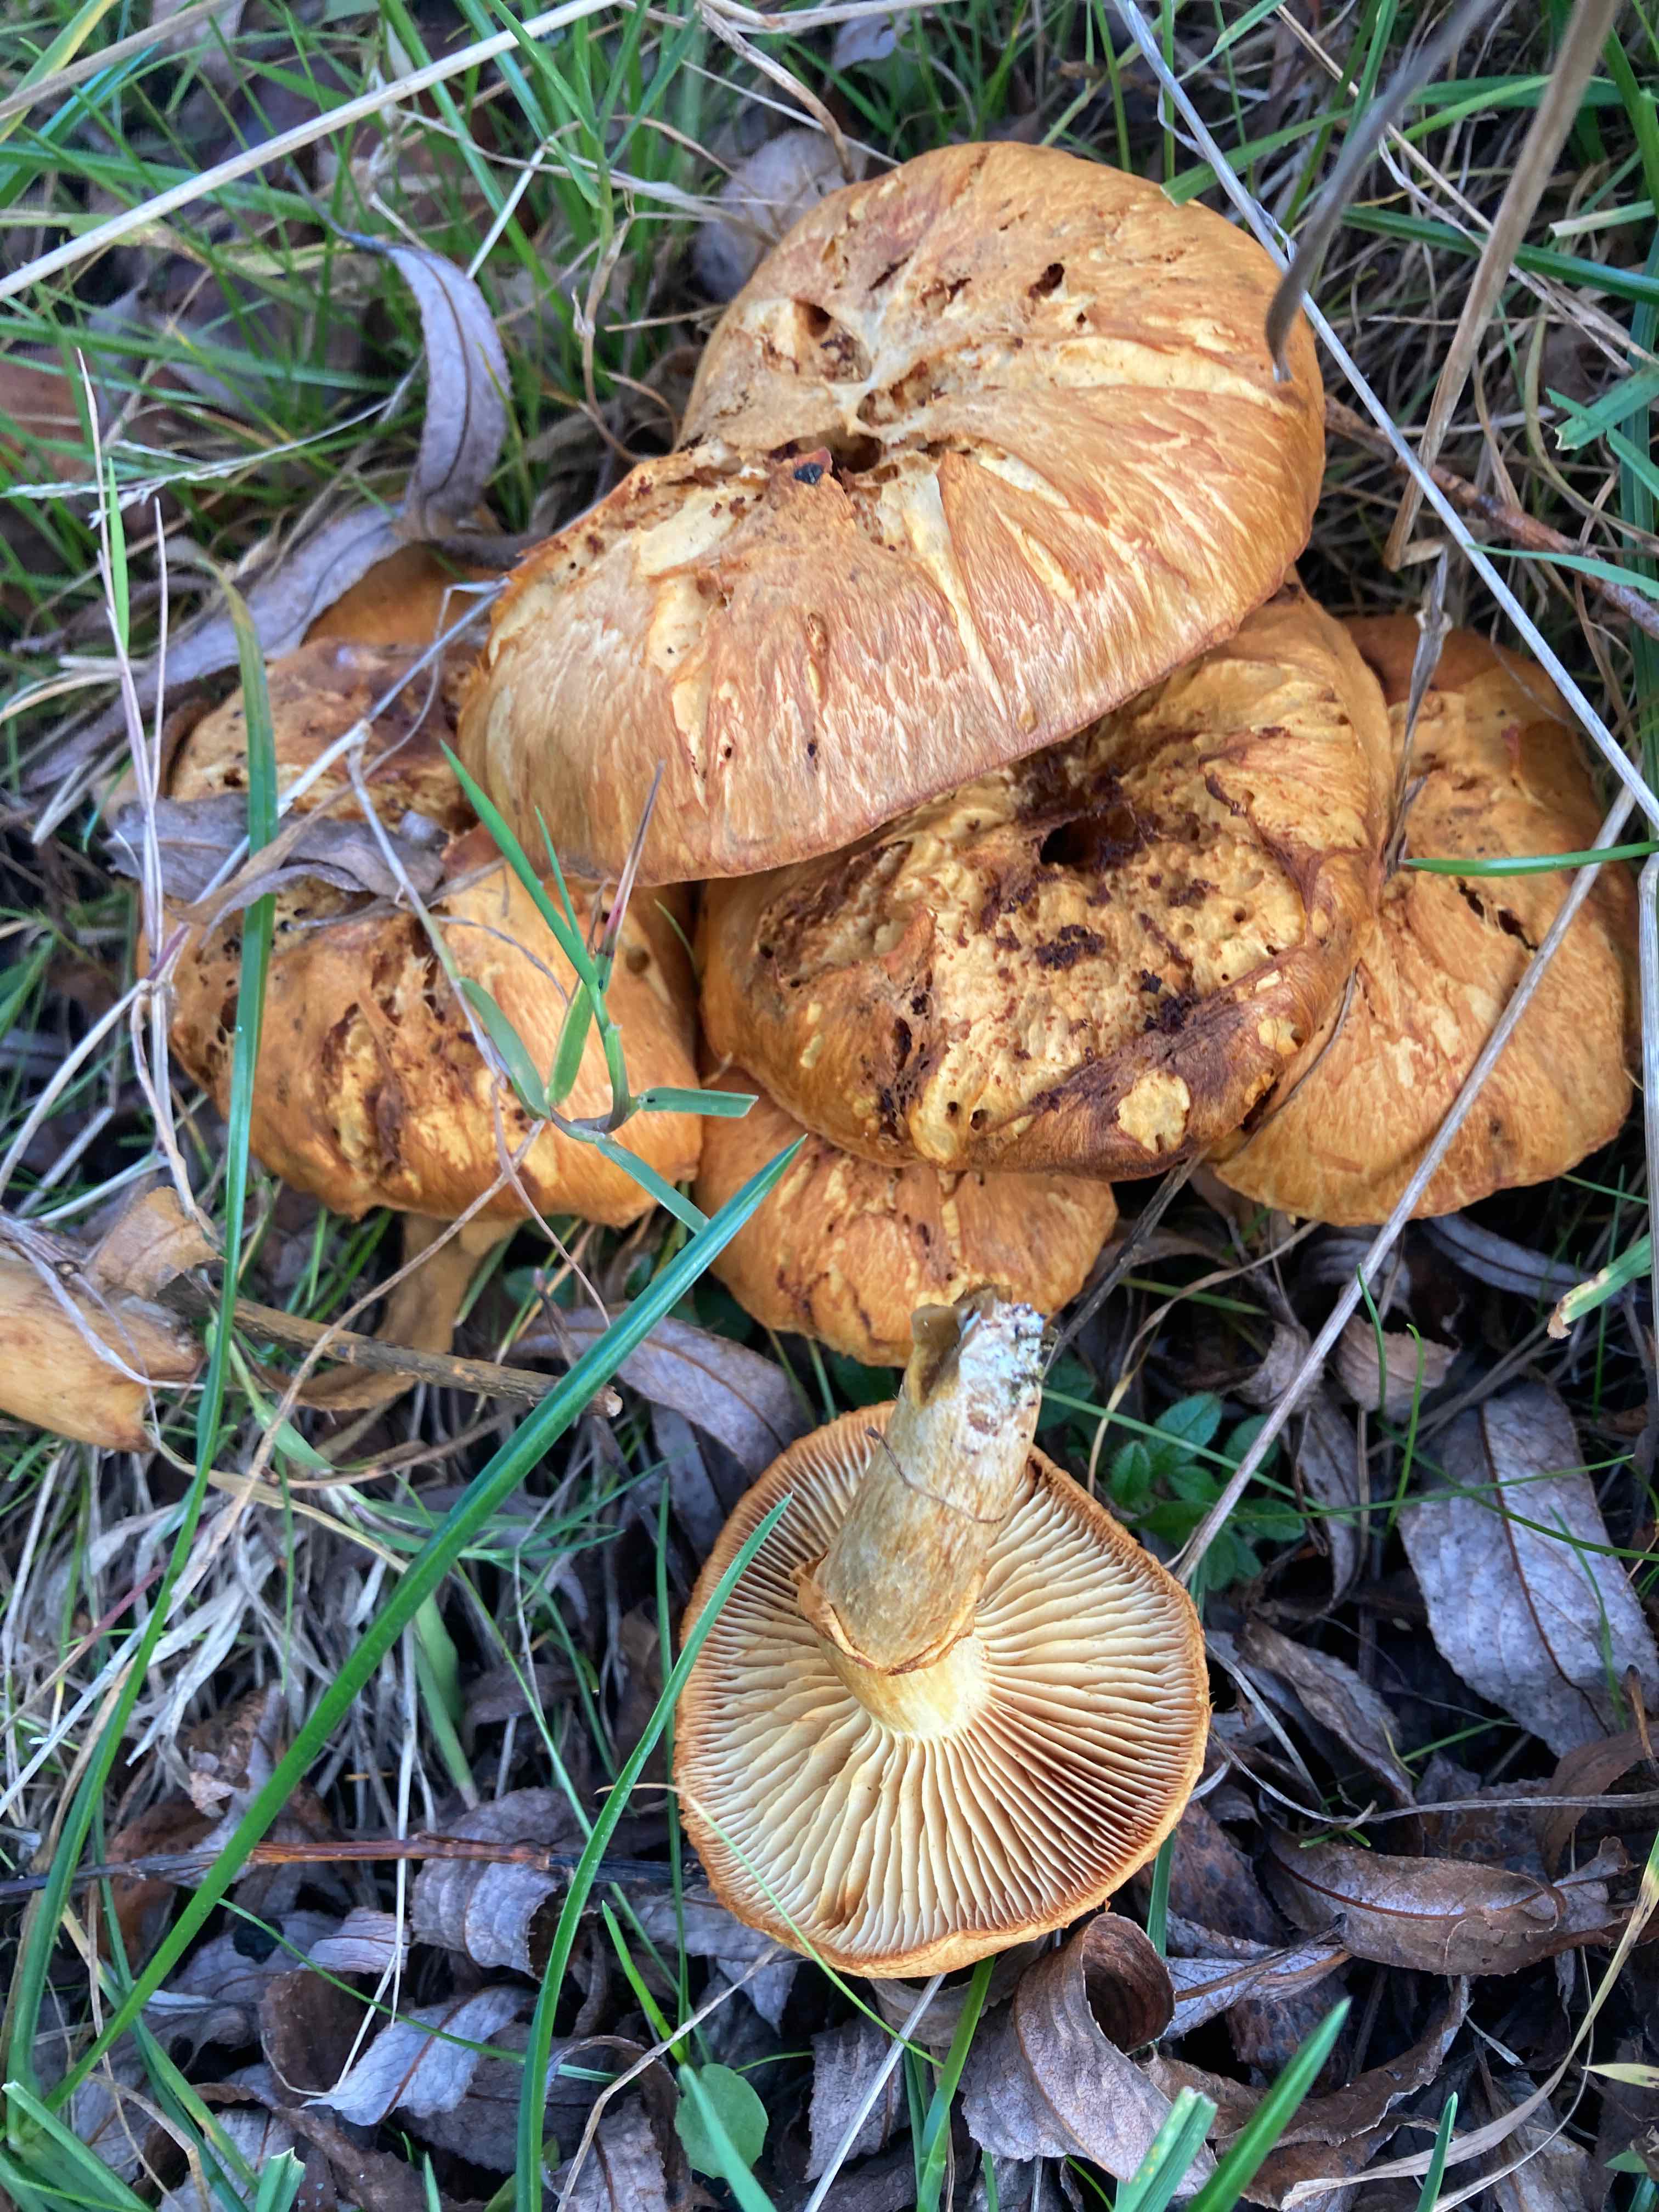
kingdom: Fungi
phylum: Basidiomycota
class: Agaricomycetes
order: Agaricales
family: Hymenogastraceae
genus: Gymnopilus
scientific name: Gymnopilus spectabilis
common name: fibret flammehat
